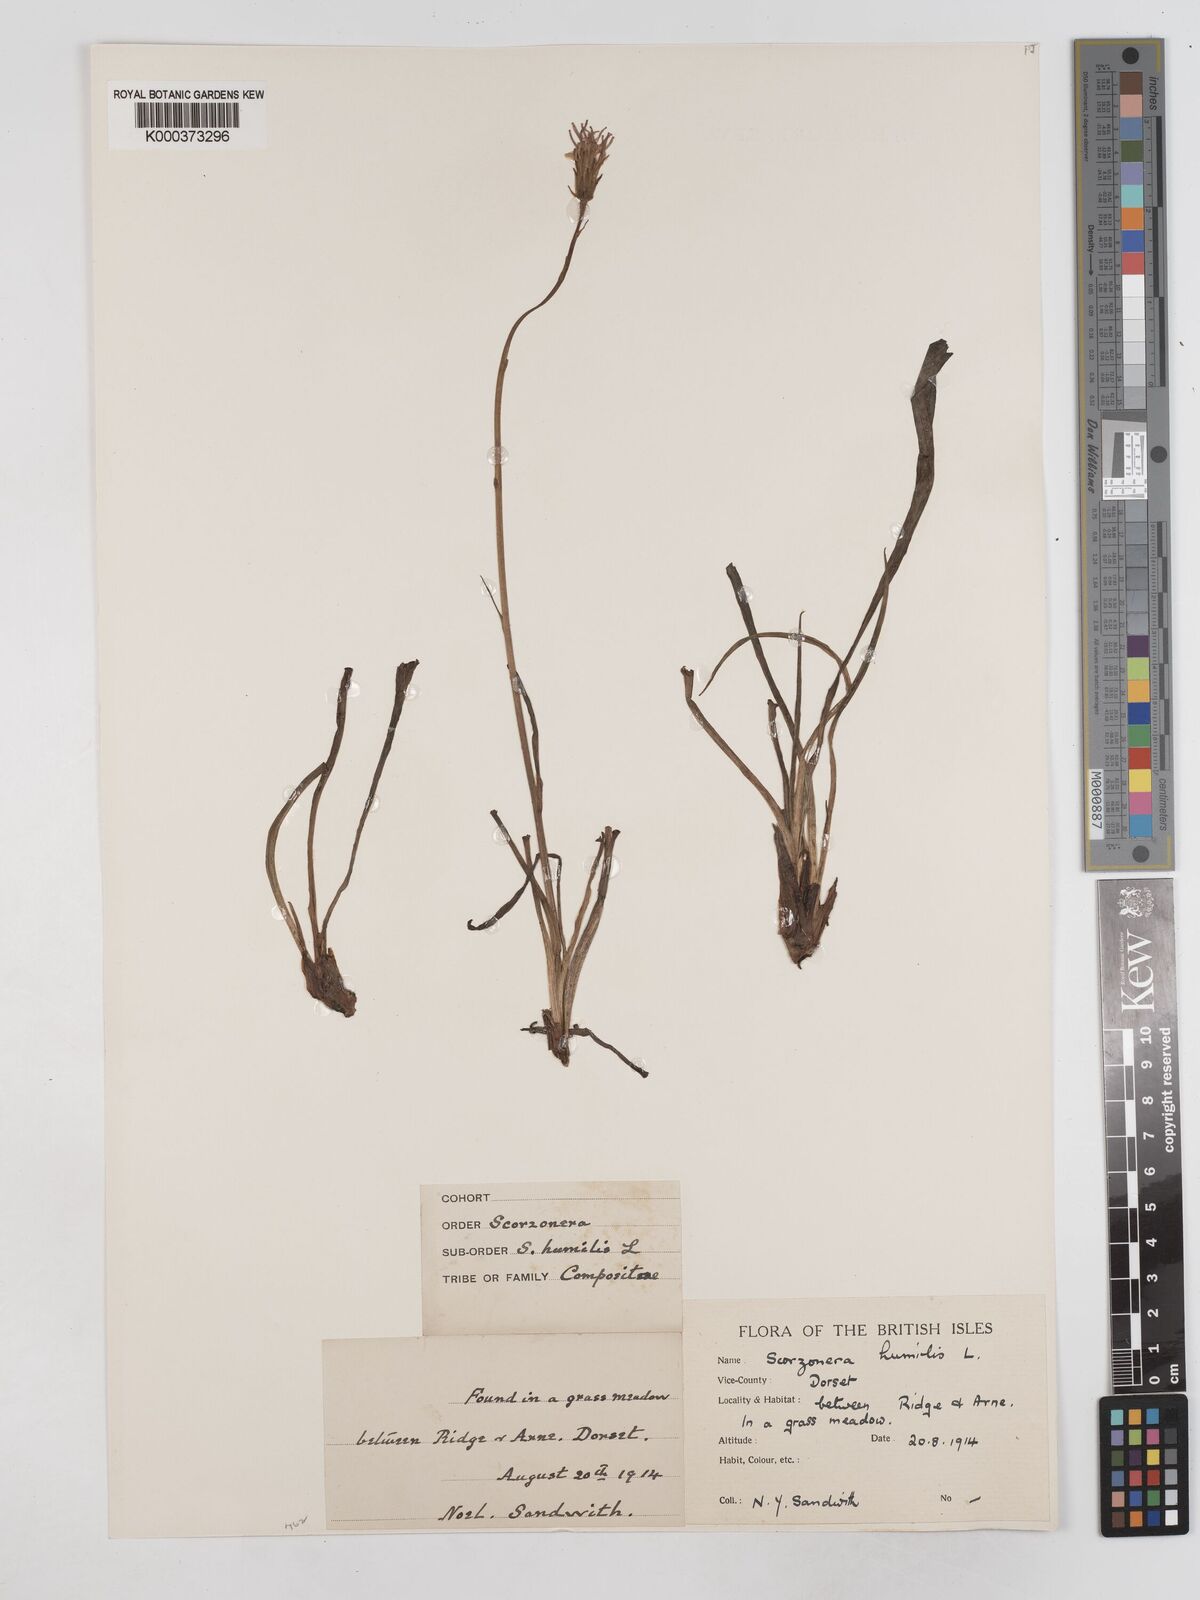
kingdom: Plantae
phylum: Tracheophyta
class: Magnoliopsida
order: Asterales
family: Asteraceae
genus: Scorzonera
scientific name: Scorzonera humilis
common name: Viper's-grass
